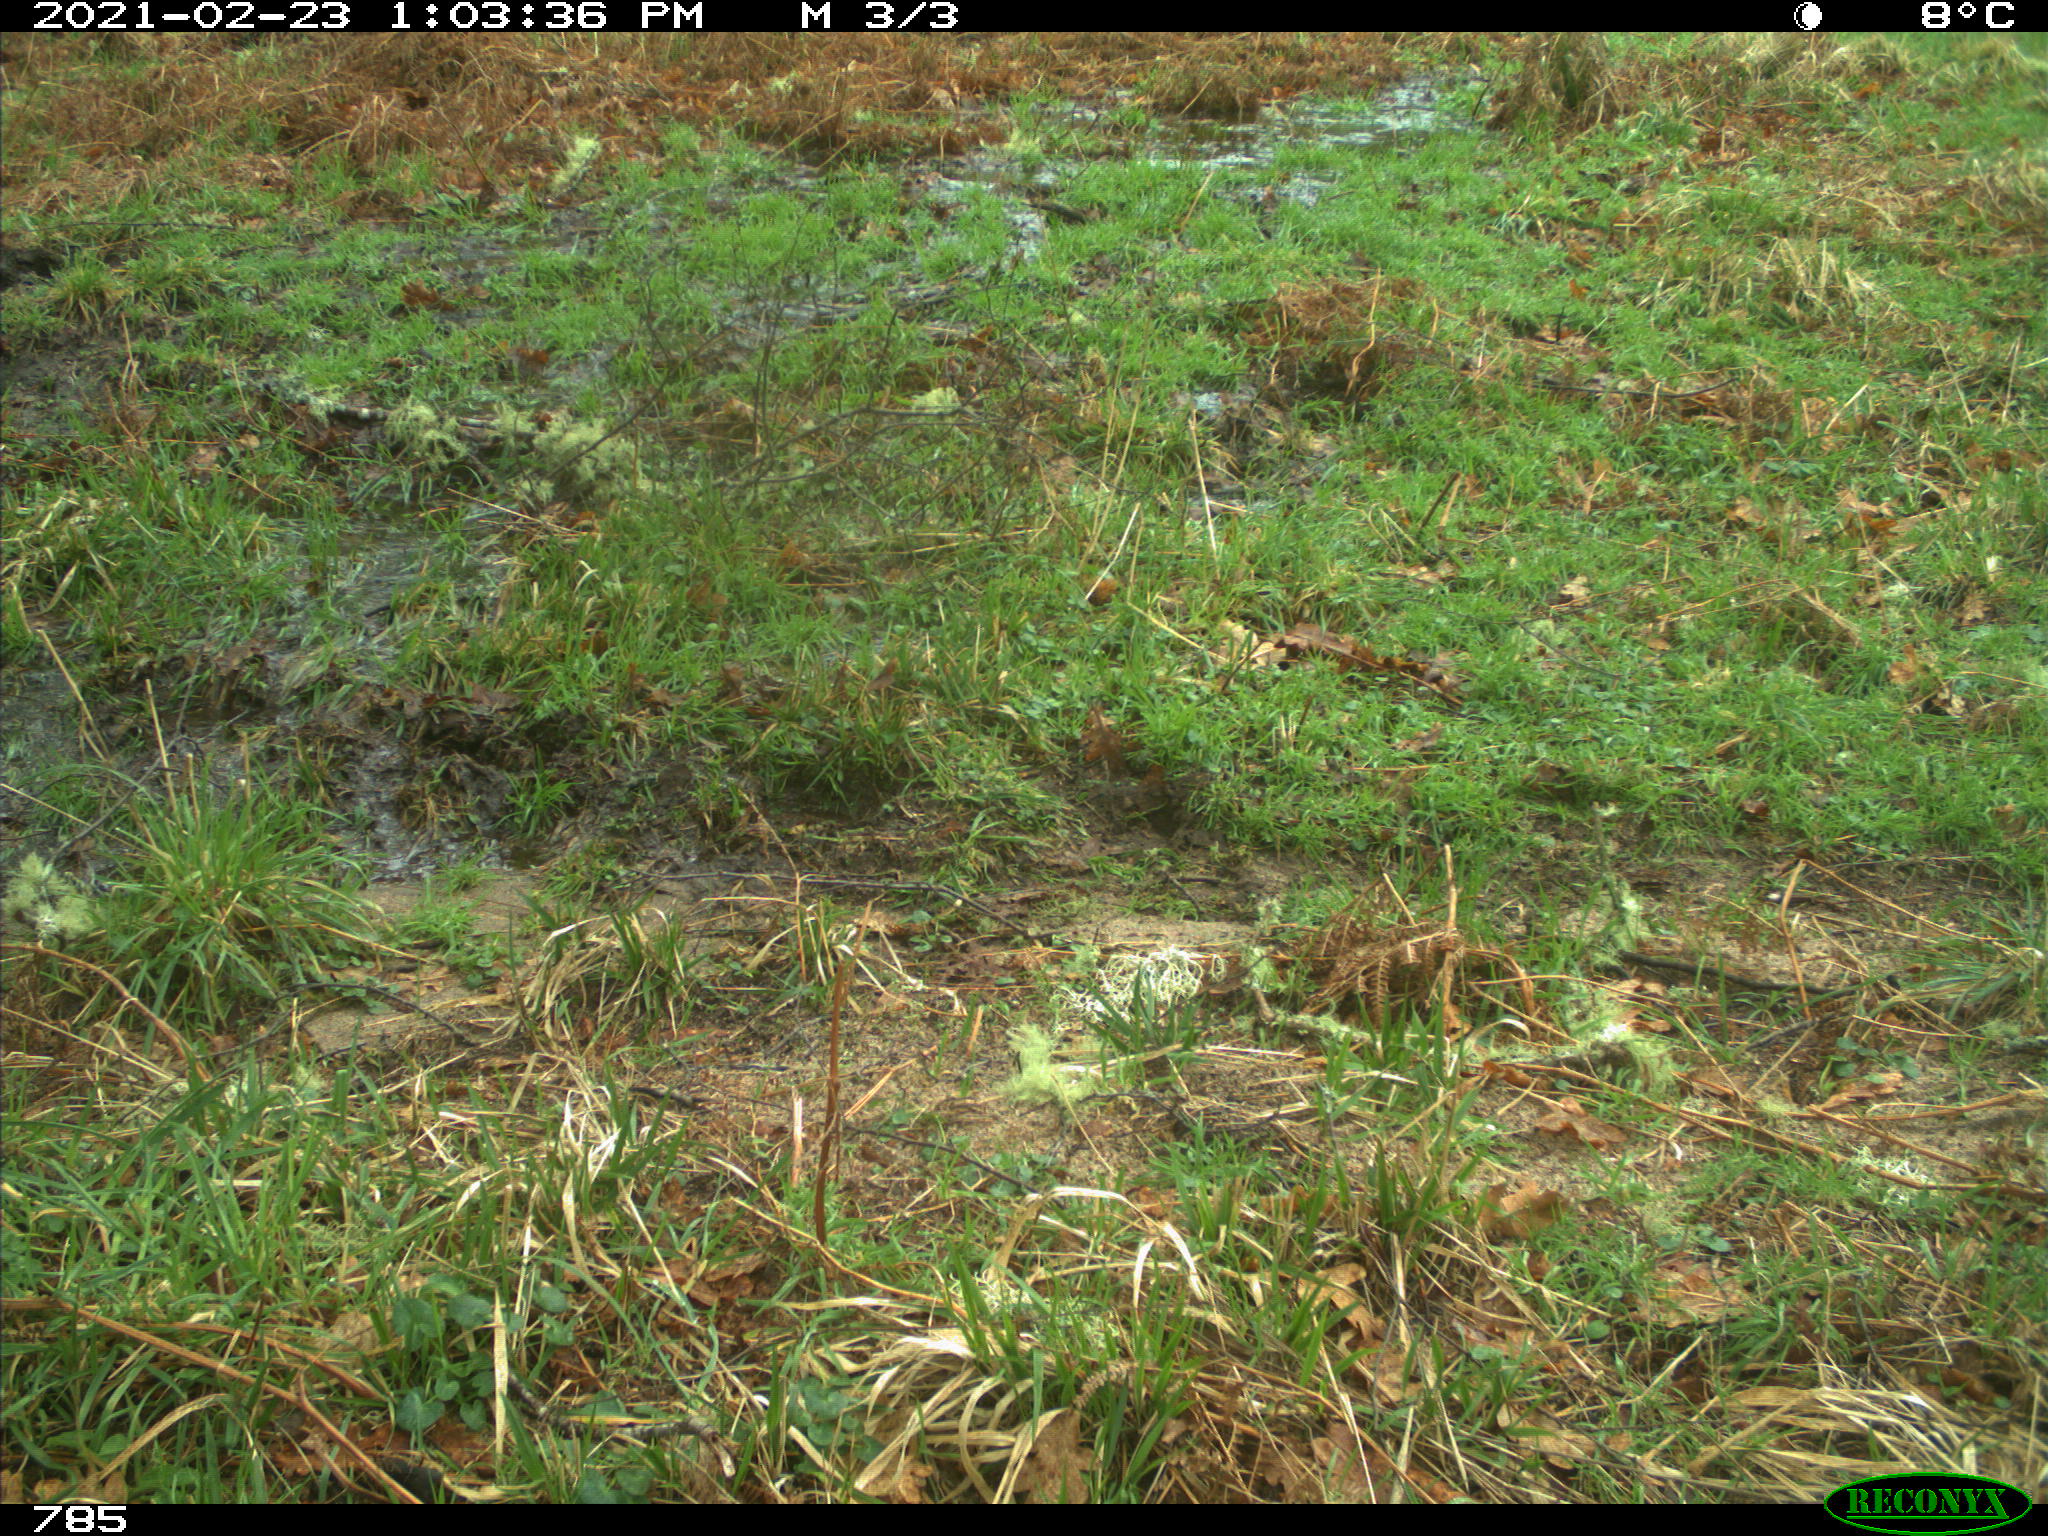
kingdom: Animalia
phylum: Chordata
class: Mammalia
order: Artiodactyla
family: Bovidae
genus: Bos
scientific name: Bos taurus
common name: Domesticated cattle
